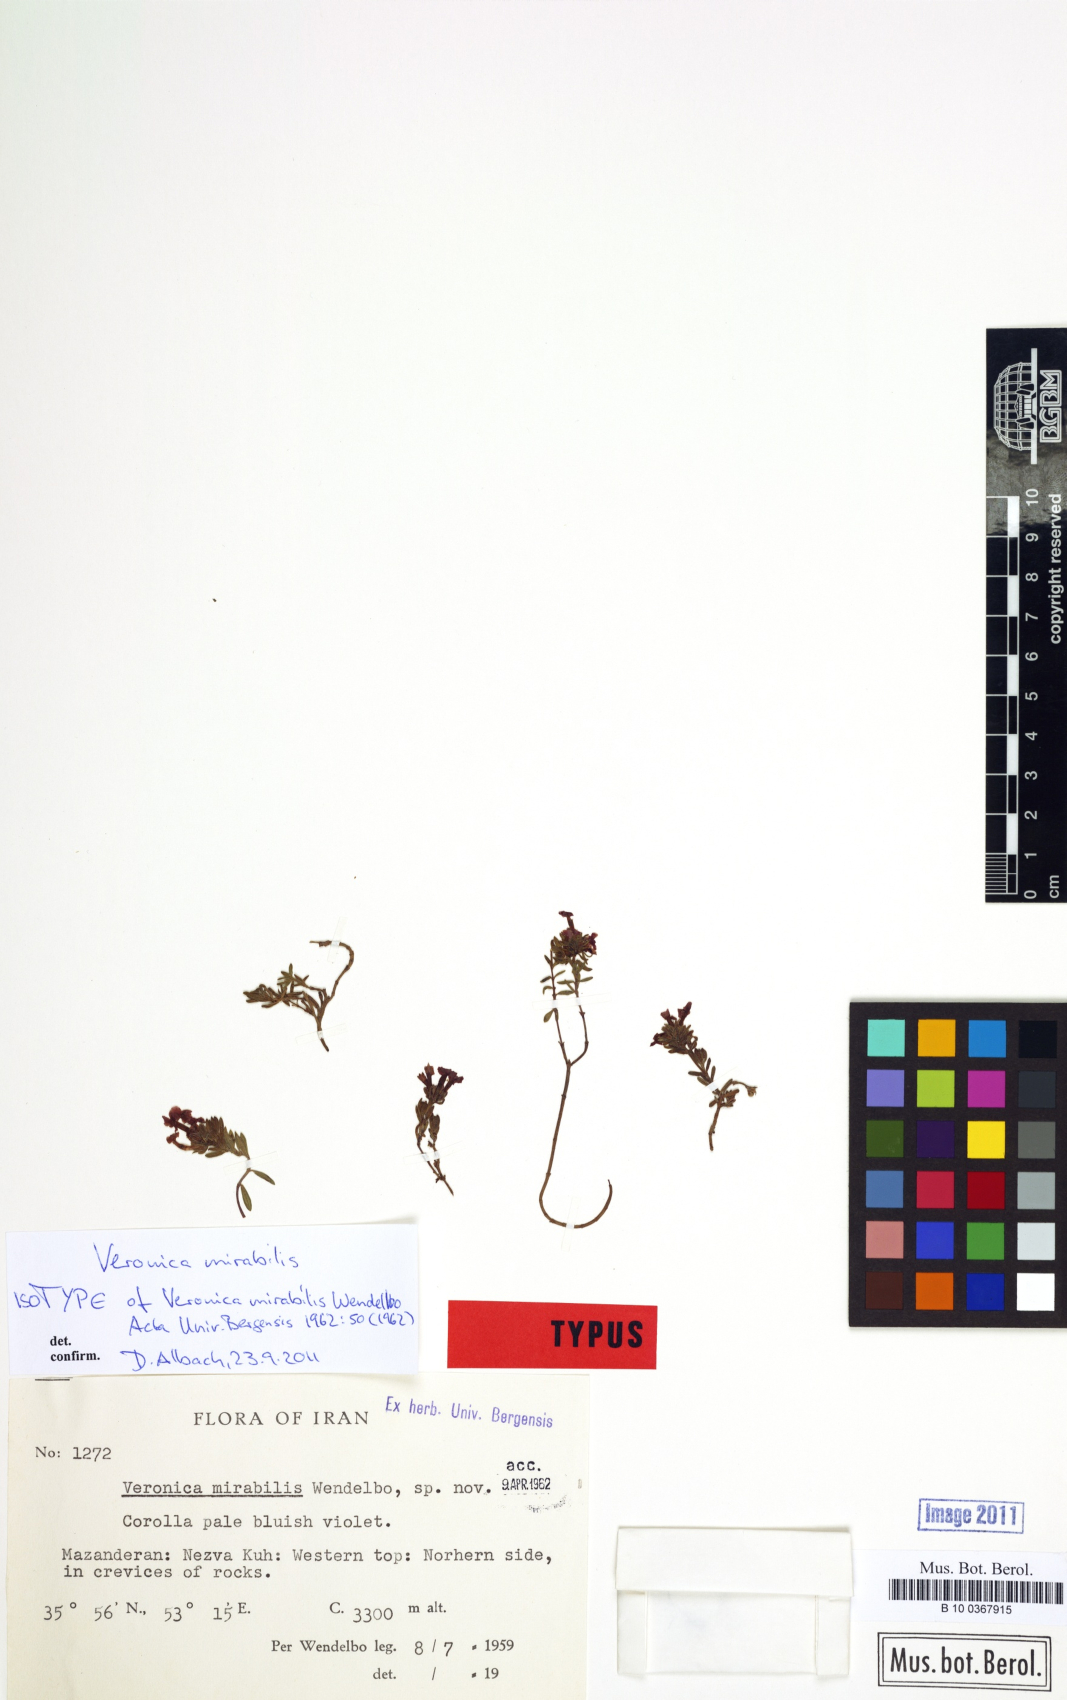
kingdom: Plantae
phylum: Tracheophyta
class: Magnoliopsida
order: Lamiales
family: Plantaginaceae
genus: Veronica
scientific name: Veronica mirabilis
